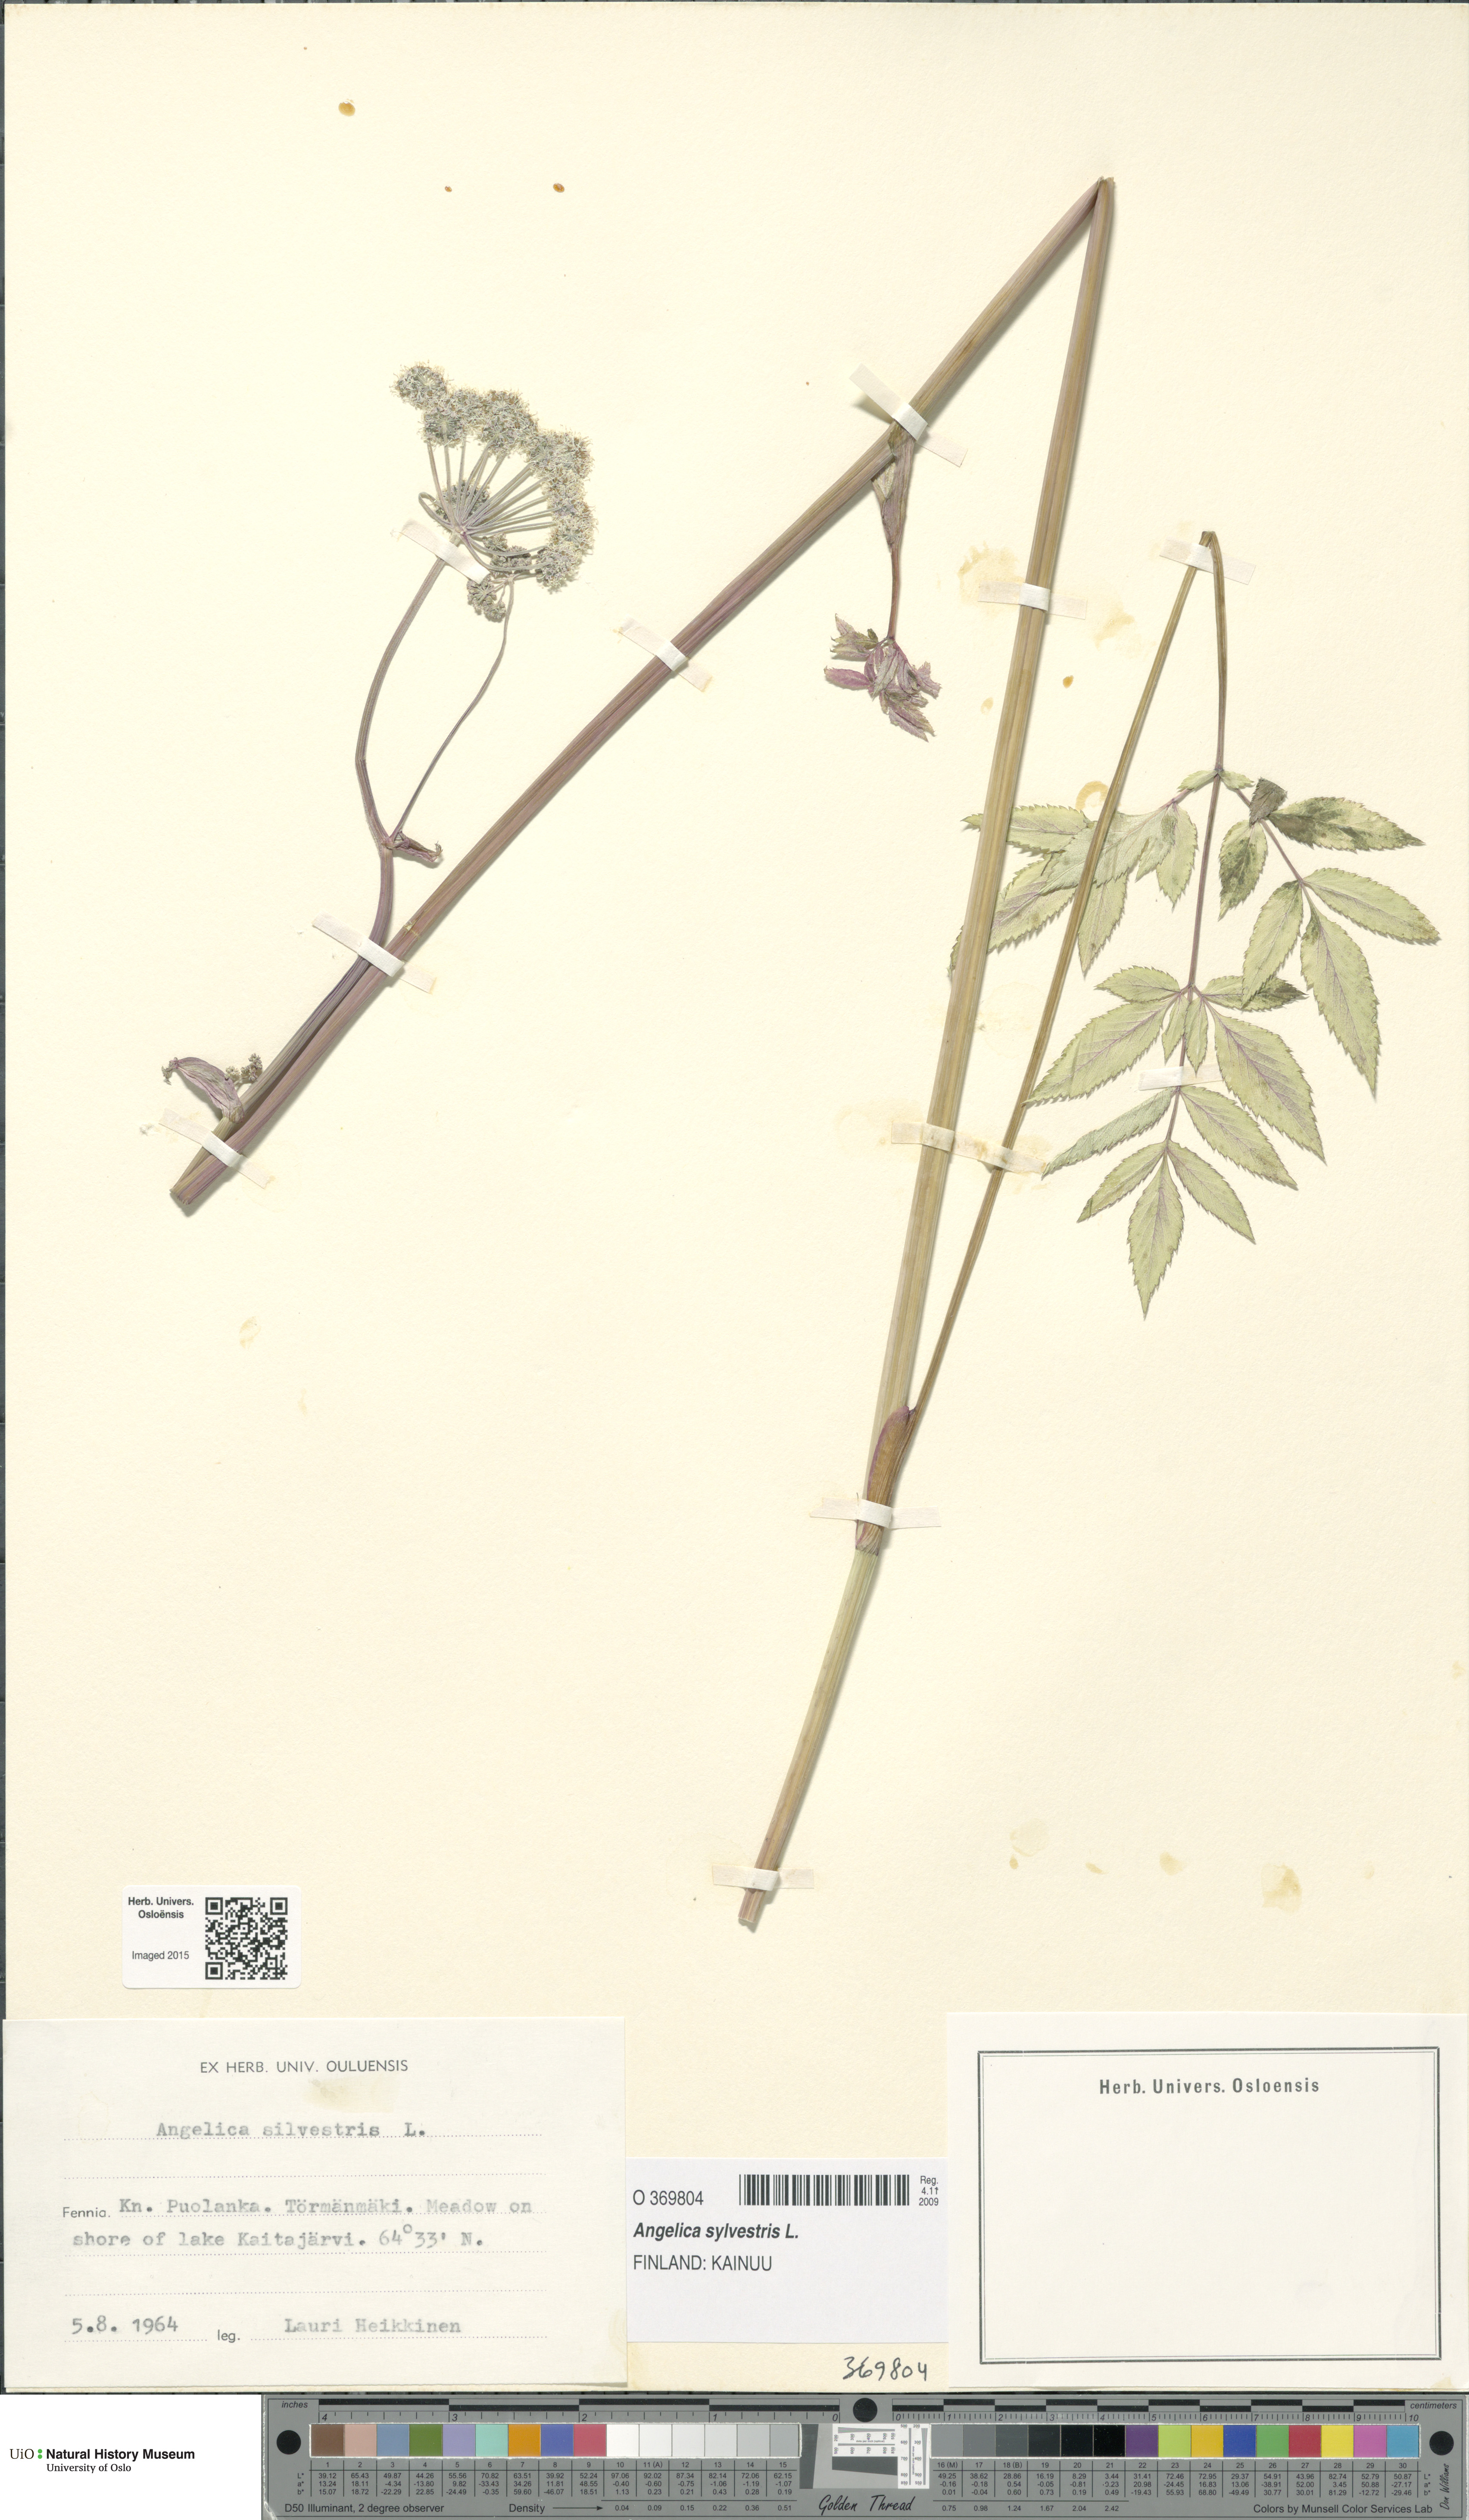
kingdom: Plantae
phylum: Tracheophyta
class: Magnoliopsida
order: Apiales
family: Apiaceae
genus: Angelica
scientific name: Angelica sylvestris
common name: Wild angelica
